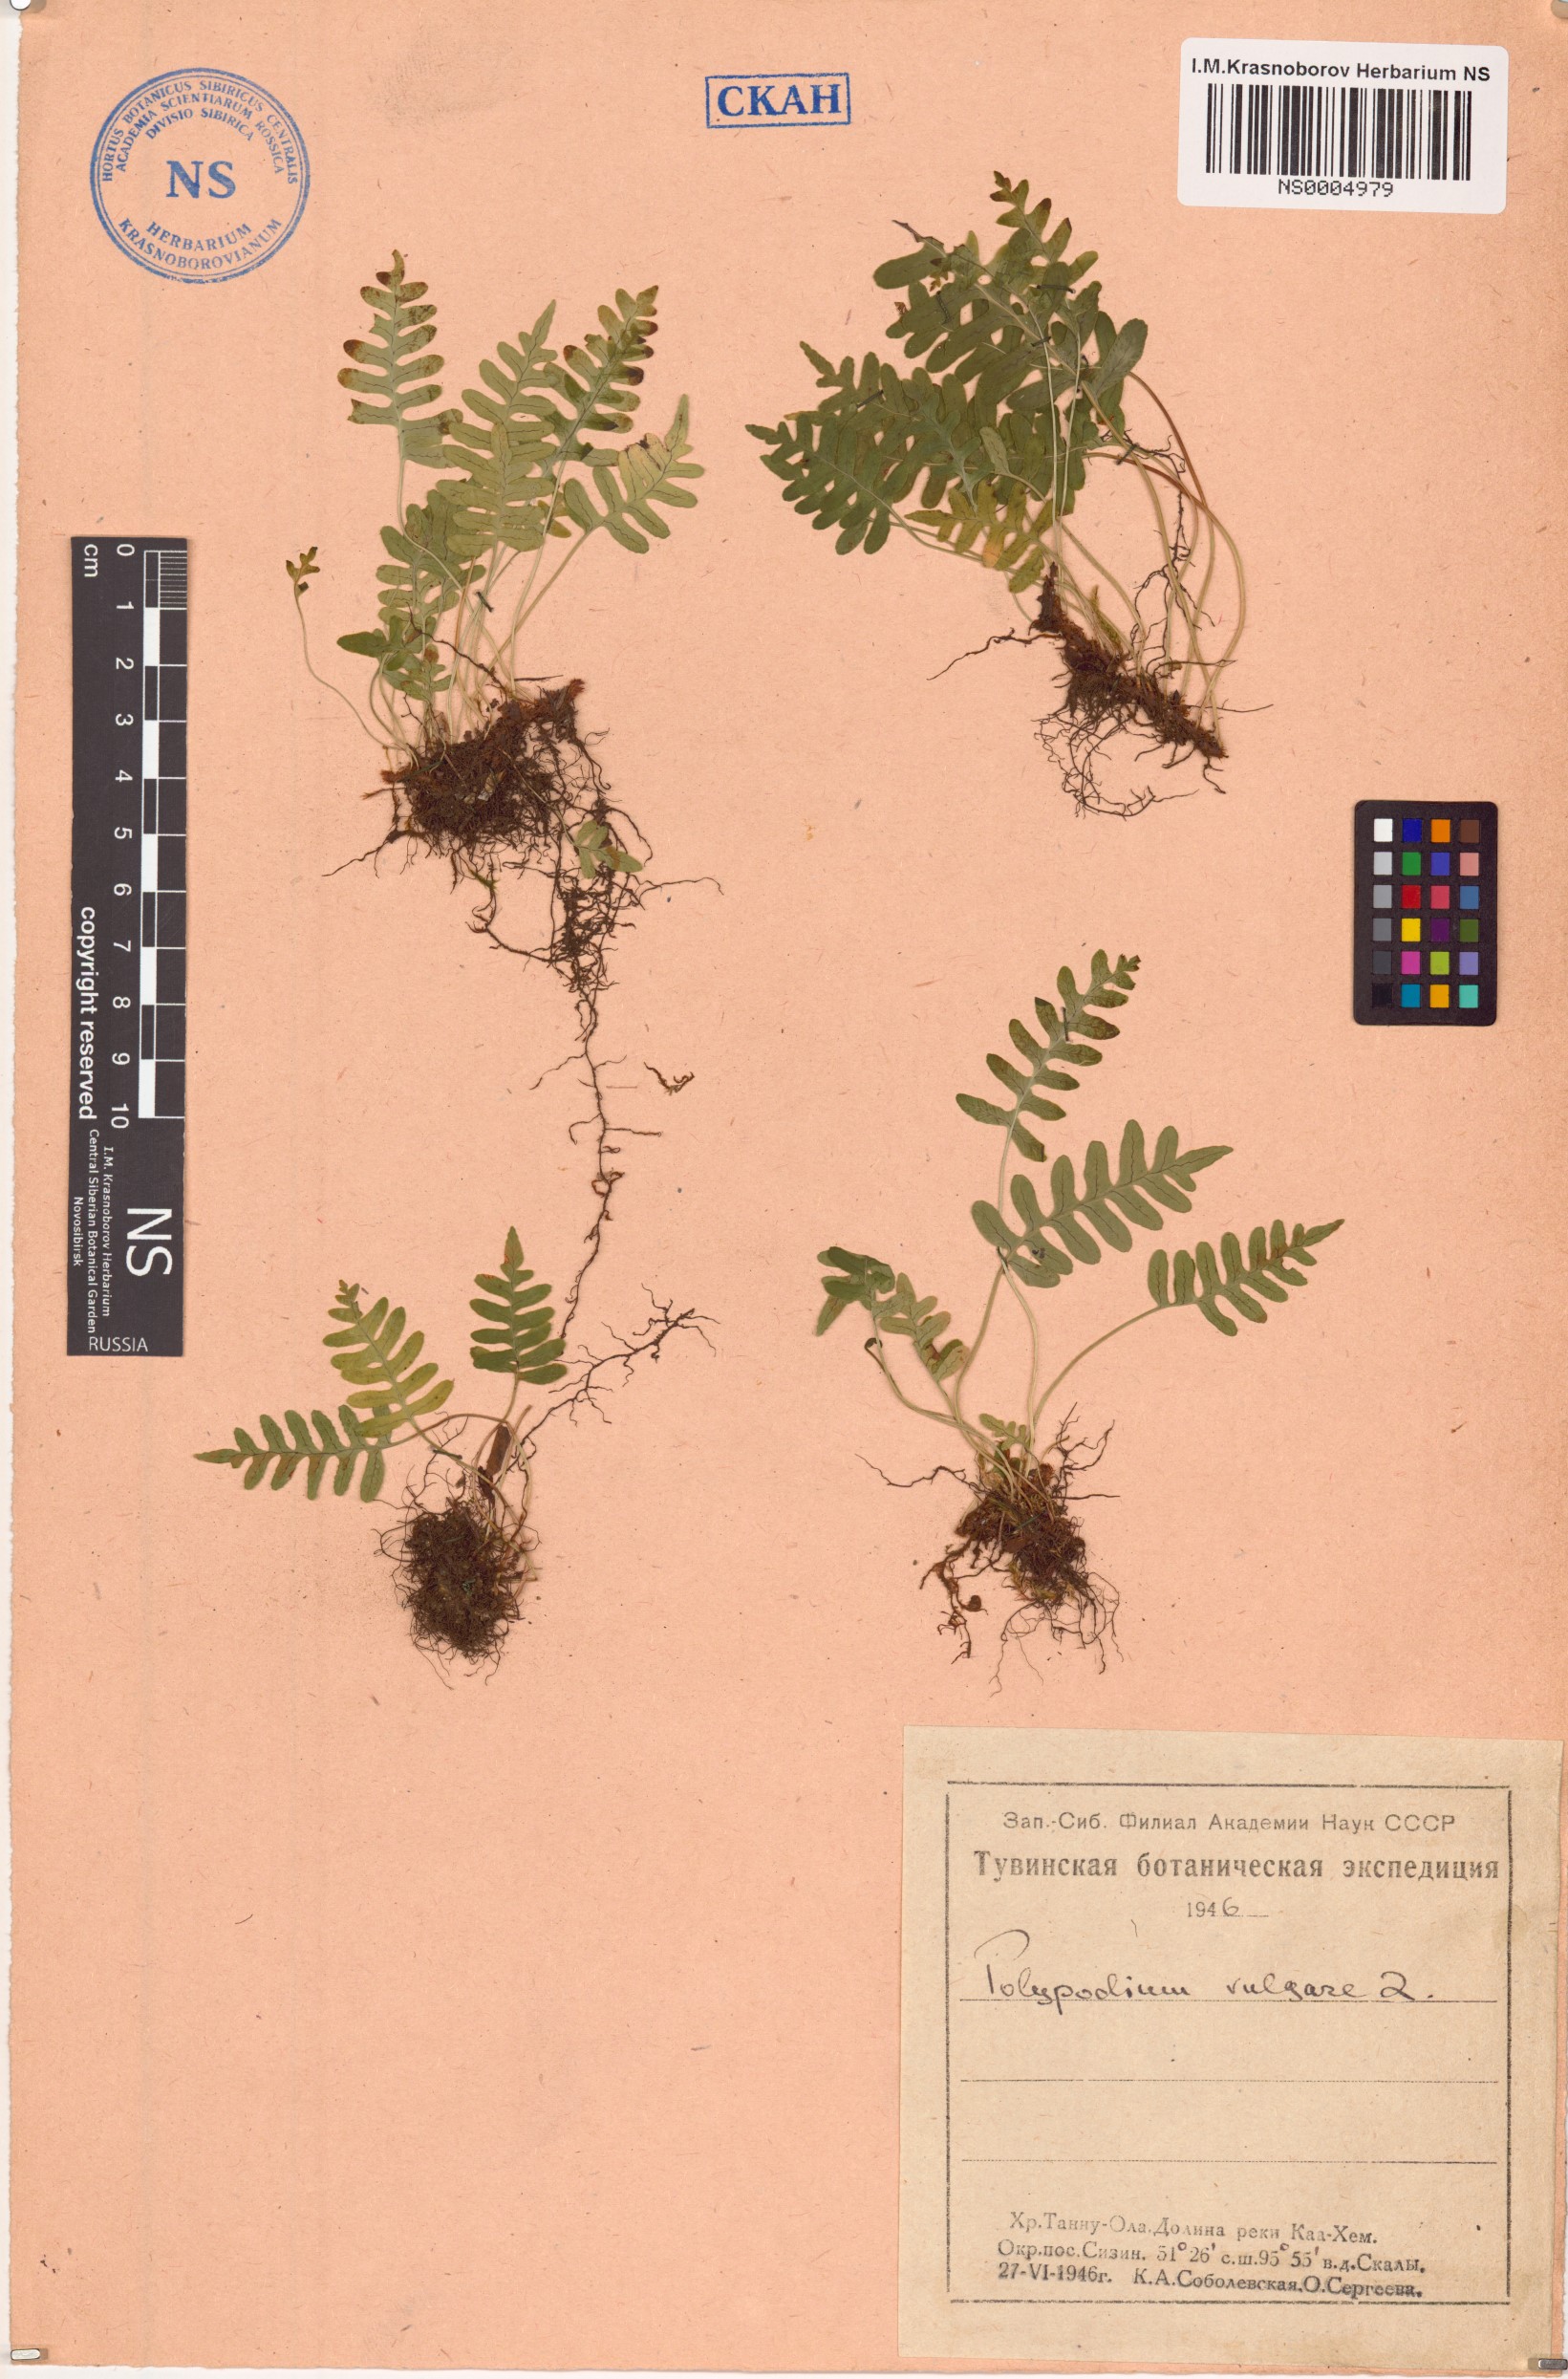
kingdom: Plantae
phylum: Tracheophyta
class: Polypodiopsida
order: Polypodiales
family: Polypodiaceae
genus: Polypodium
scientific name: Polypodium vulgare
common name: Common polypody
